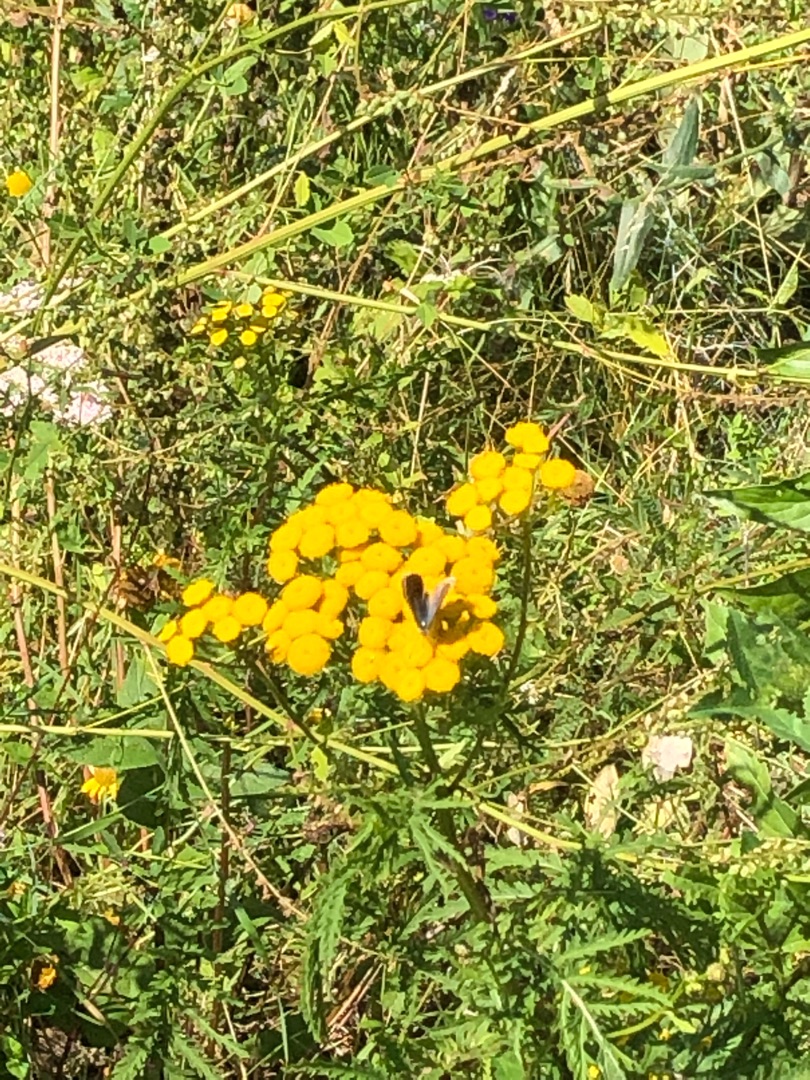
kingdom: Animalia
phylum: Arthropoda
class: Insecta
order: Lepidoptera
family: Lycaenidae
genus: Polyommatus
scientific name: Polyommatus icarus
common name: Almindelig blåfugl
